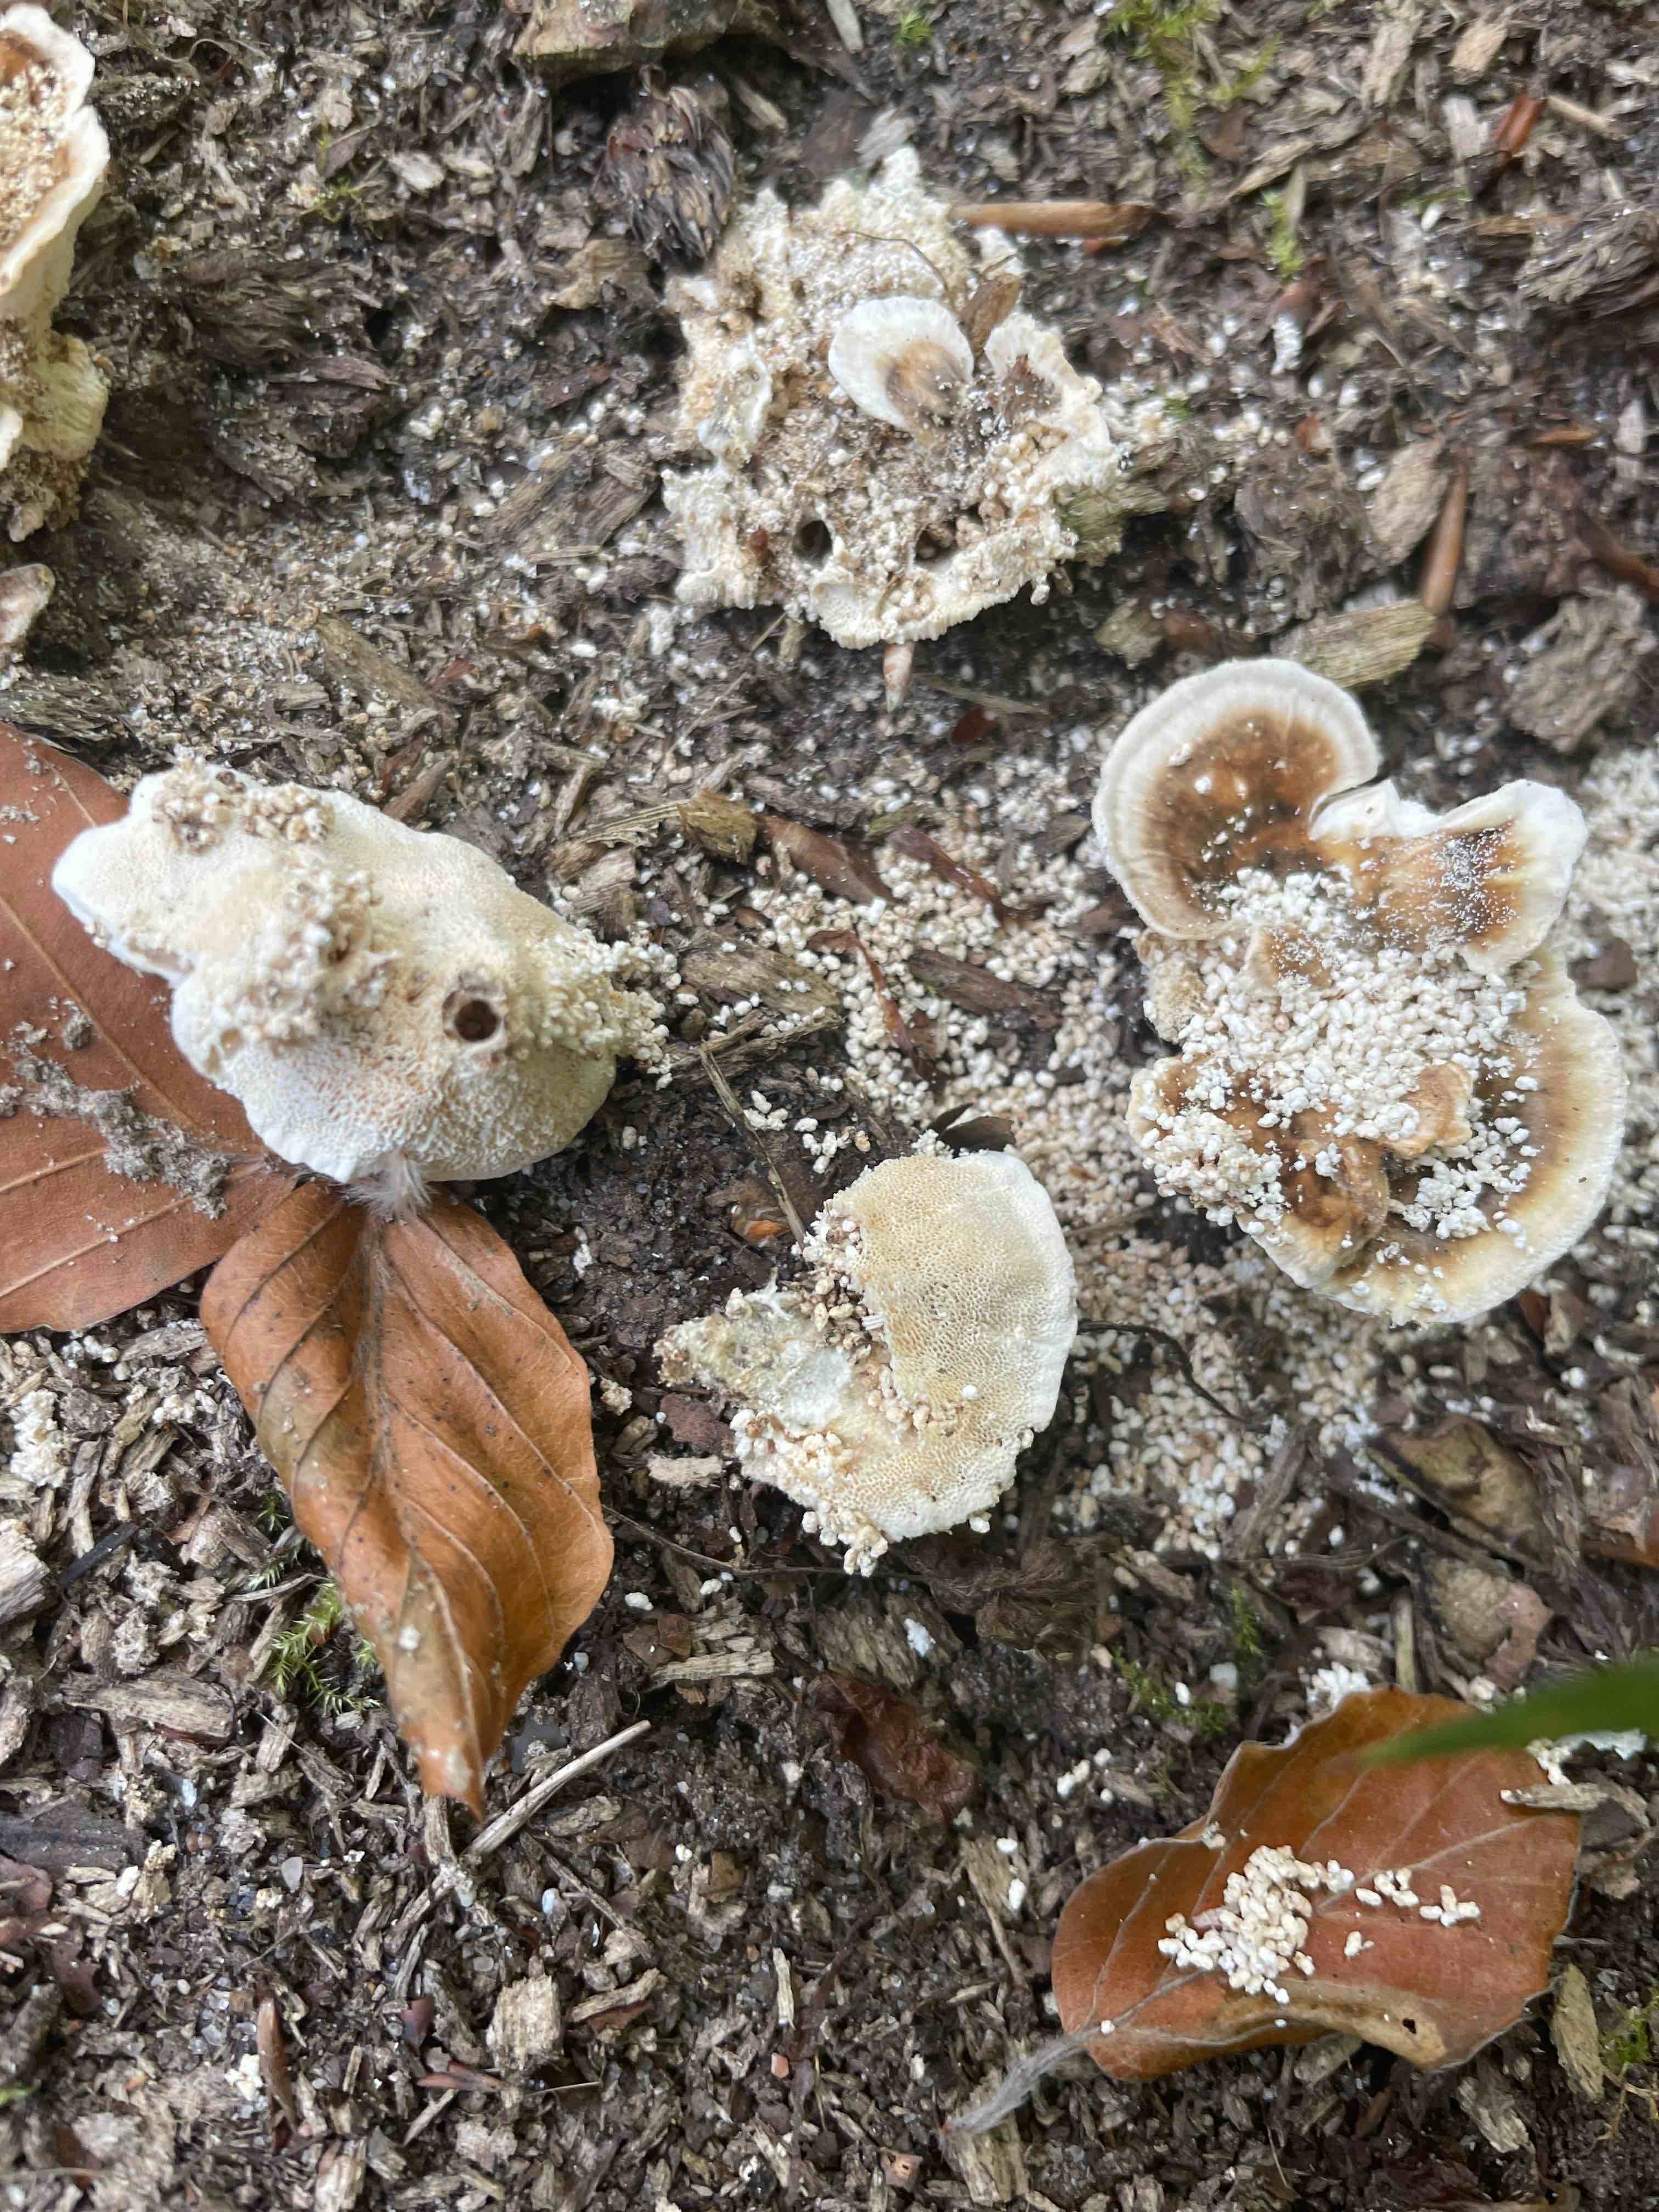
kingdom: Fungi
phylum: Basidiomycota
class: Agaricomycetes
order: Polyporales
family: Polyporaceae
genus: Trametes
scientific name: Trametes versicolor
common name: broget læderporesvamp
